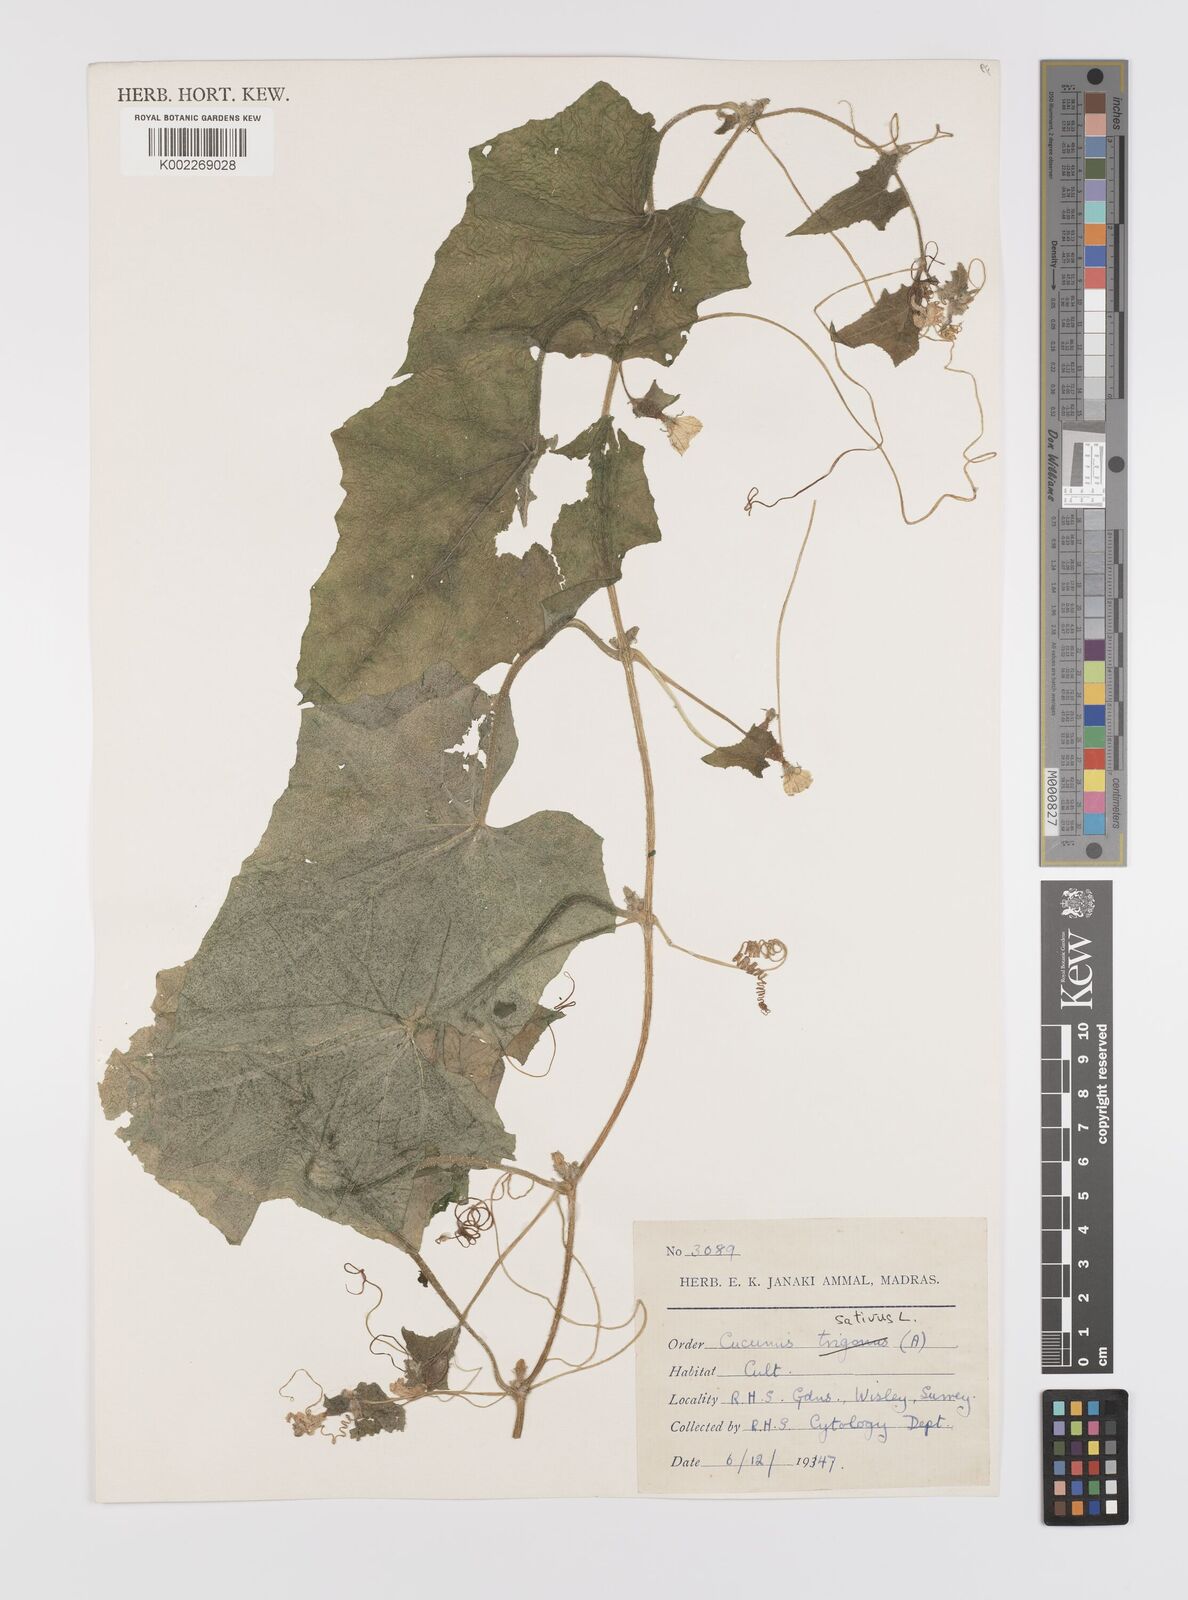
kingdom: Plantae
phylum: Tracheophyta
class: Magnoliopsida
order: Cucurbitales
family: Cucurbitaceae
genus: Cucumis
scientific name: Cucumis sativus
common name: Cucumber
